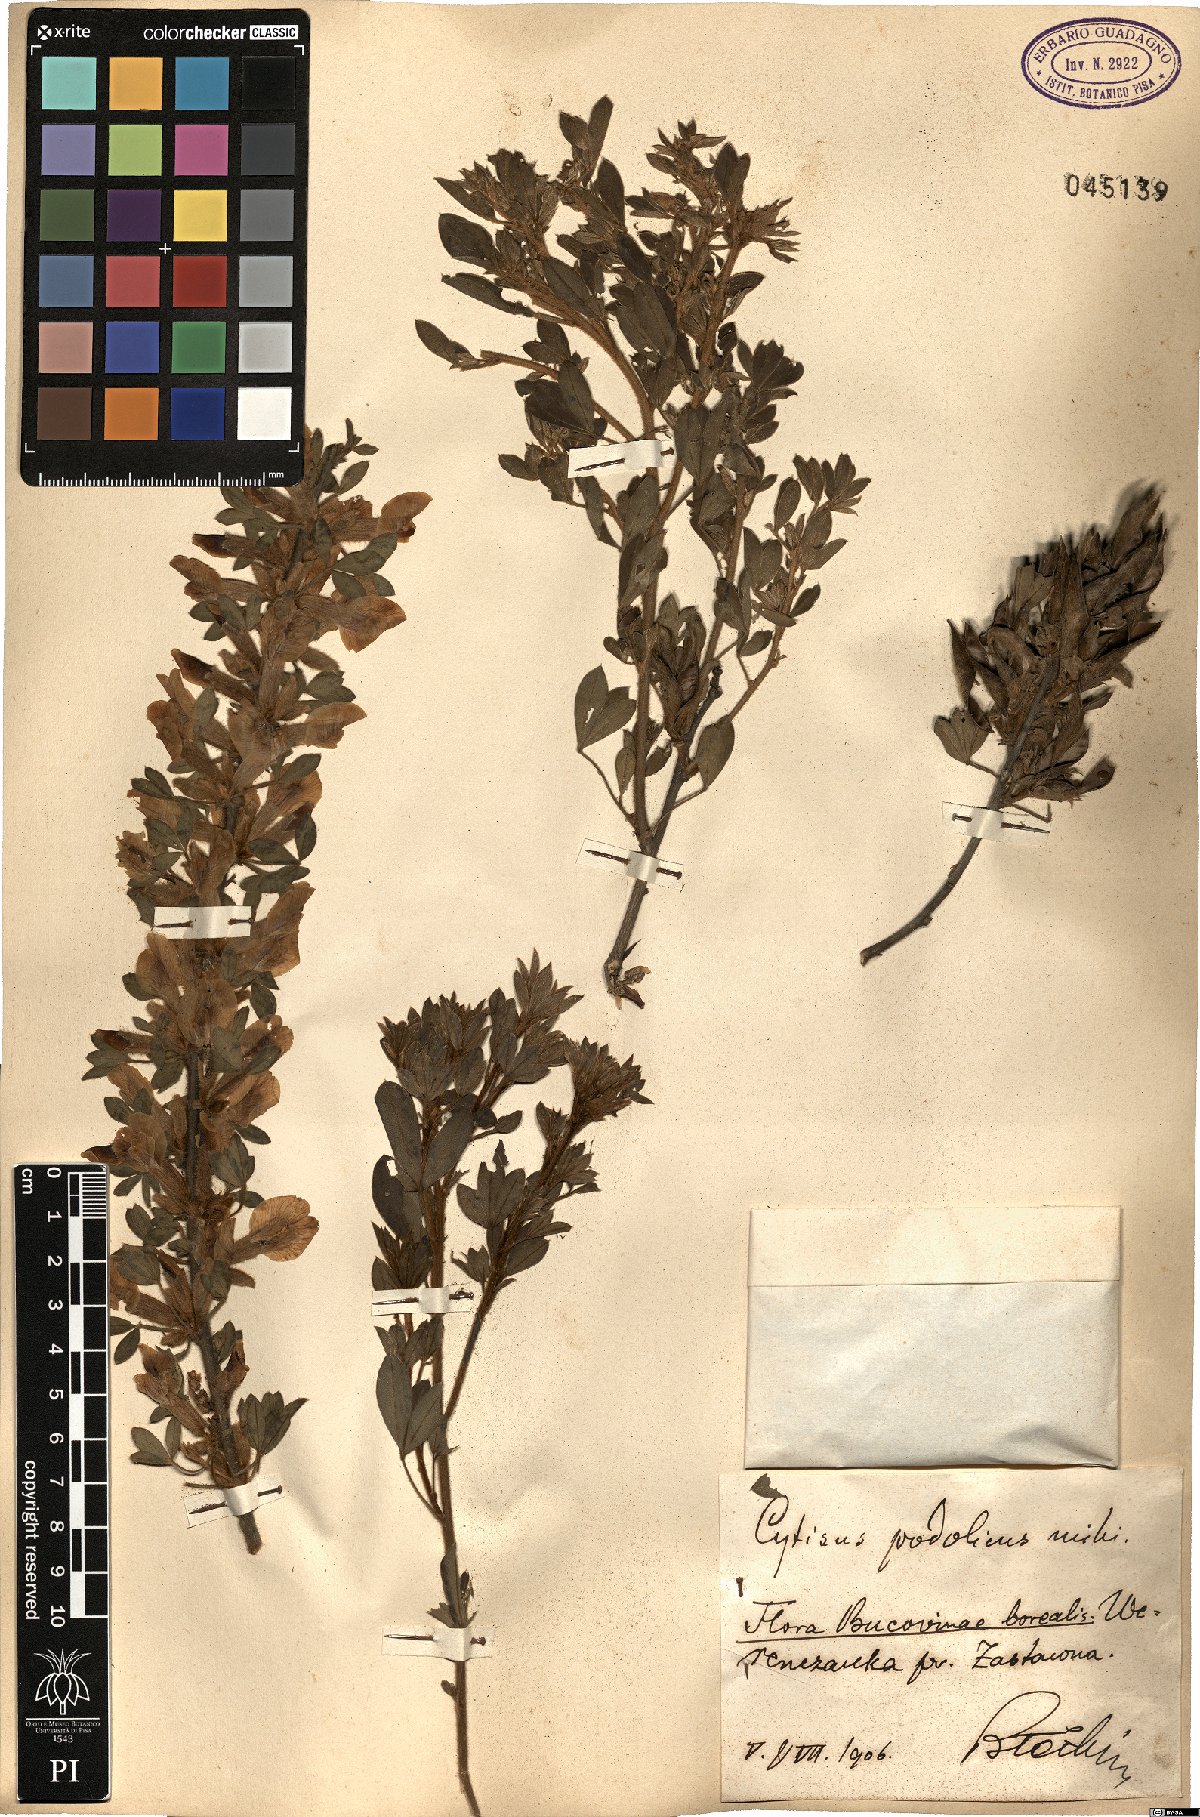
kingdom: Plantae
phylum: Tracheophyta
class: Magnoliopsida
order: Fabales
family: Fabaceae
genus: Chamaecytisus
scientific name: Chamaecytisus podolicus
